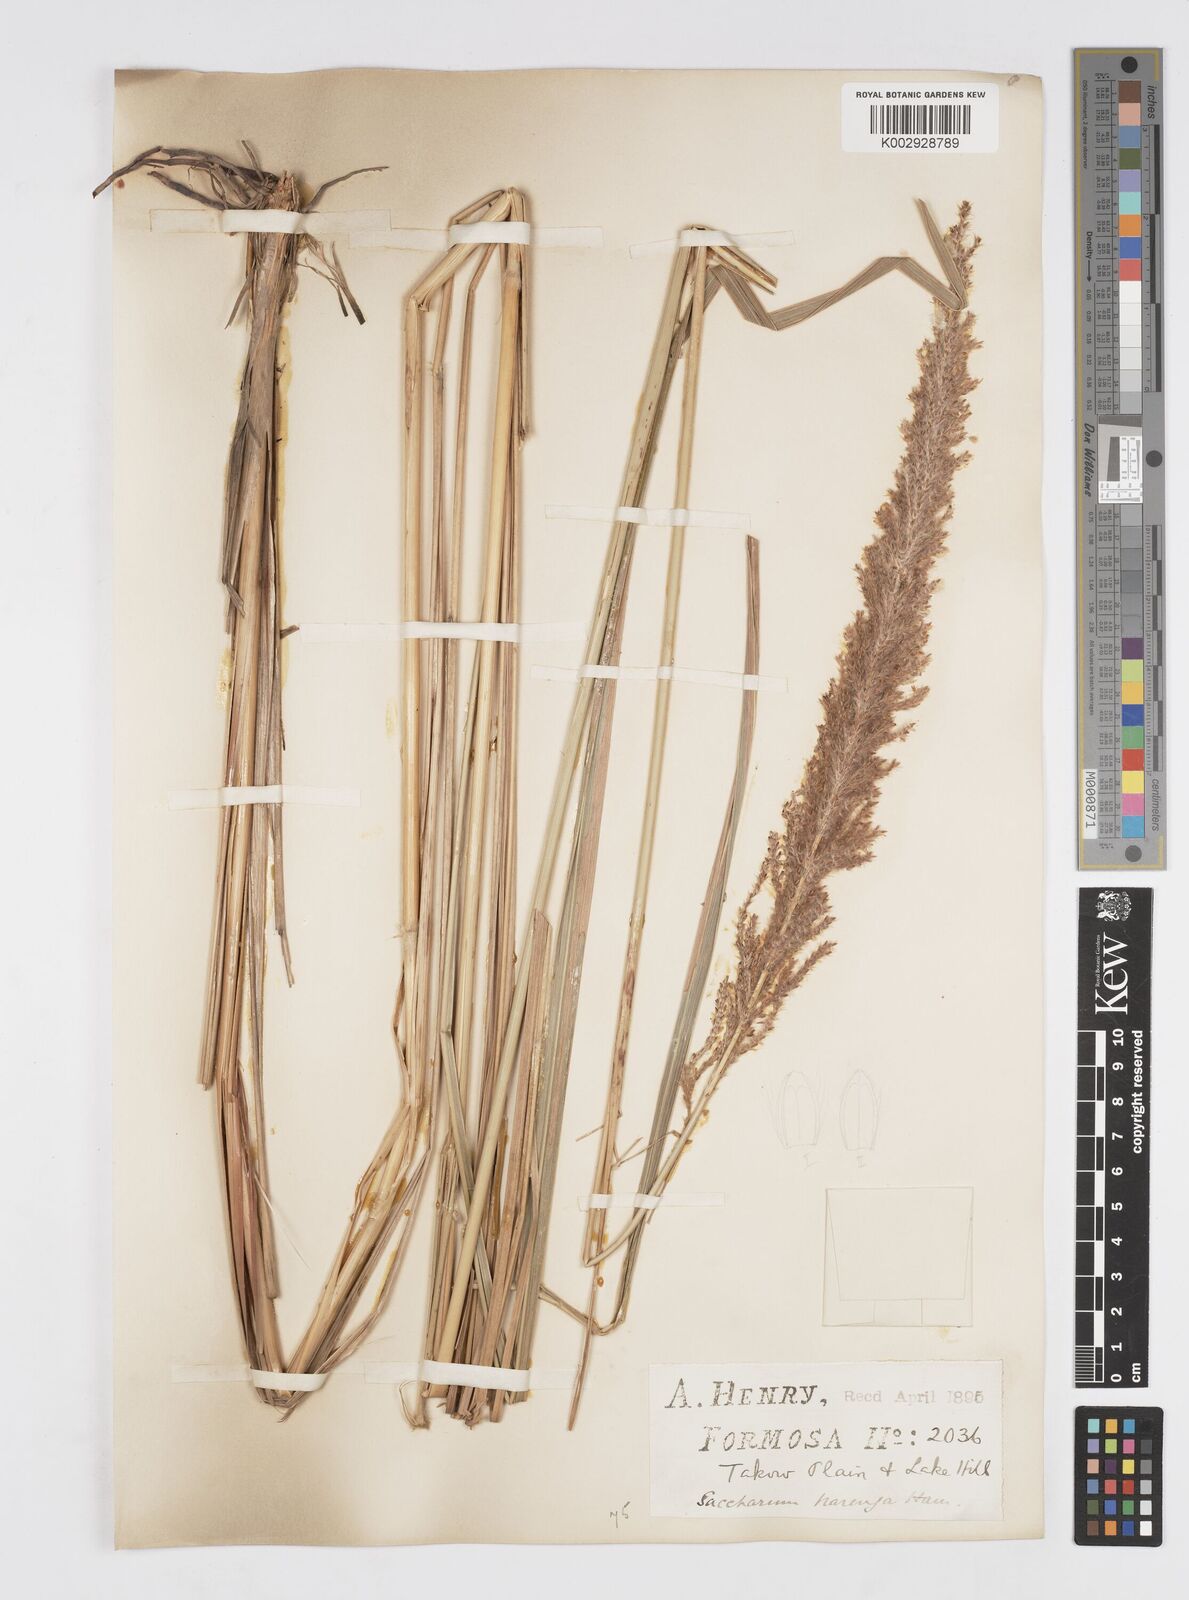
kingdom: Plantae
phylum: Tracheophyta
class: Liliopsida
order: Poales
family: Poaceae
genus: Narenga
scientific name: Narenga porphyrocoma
